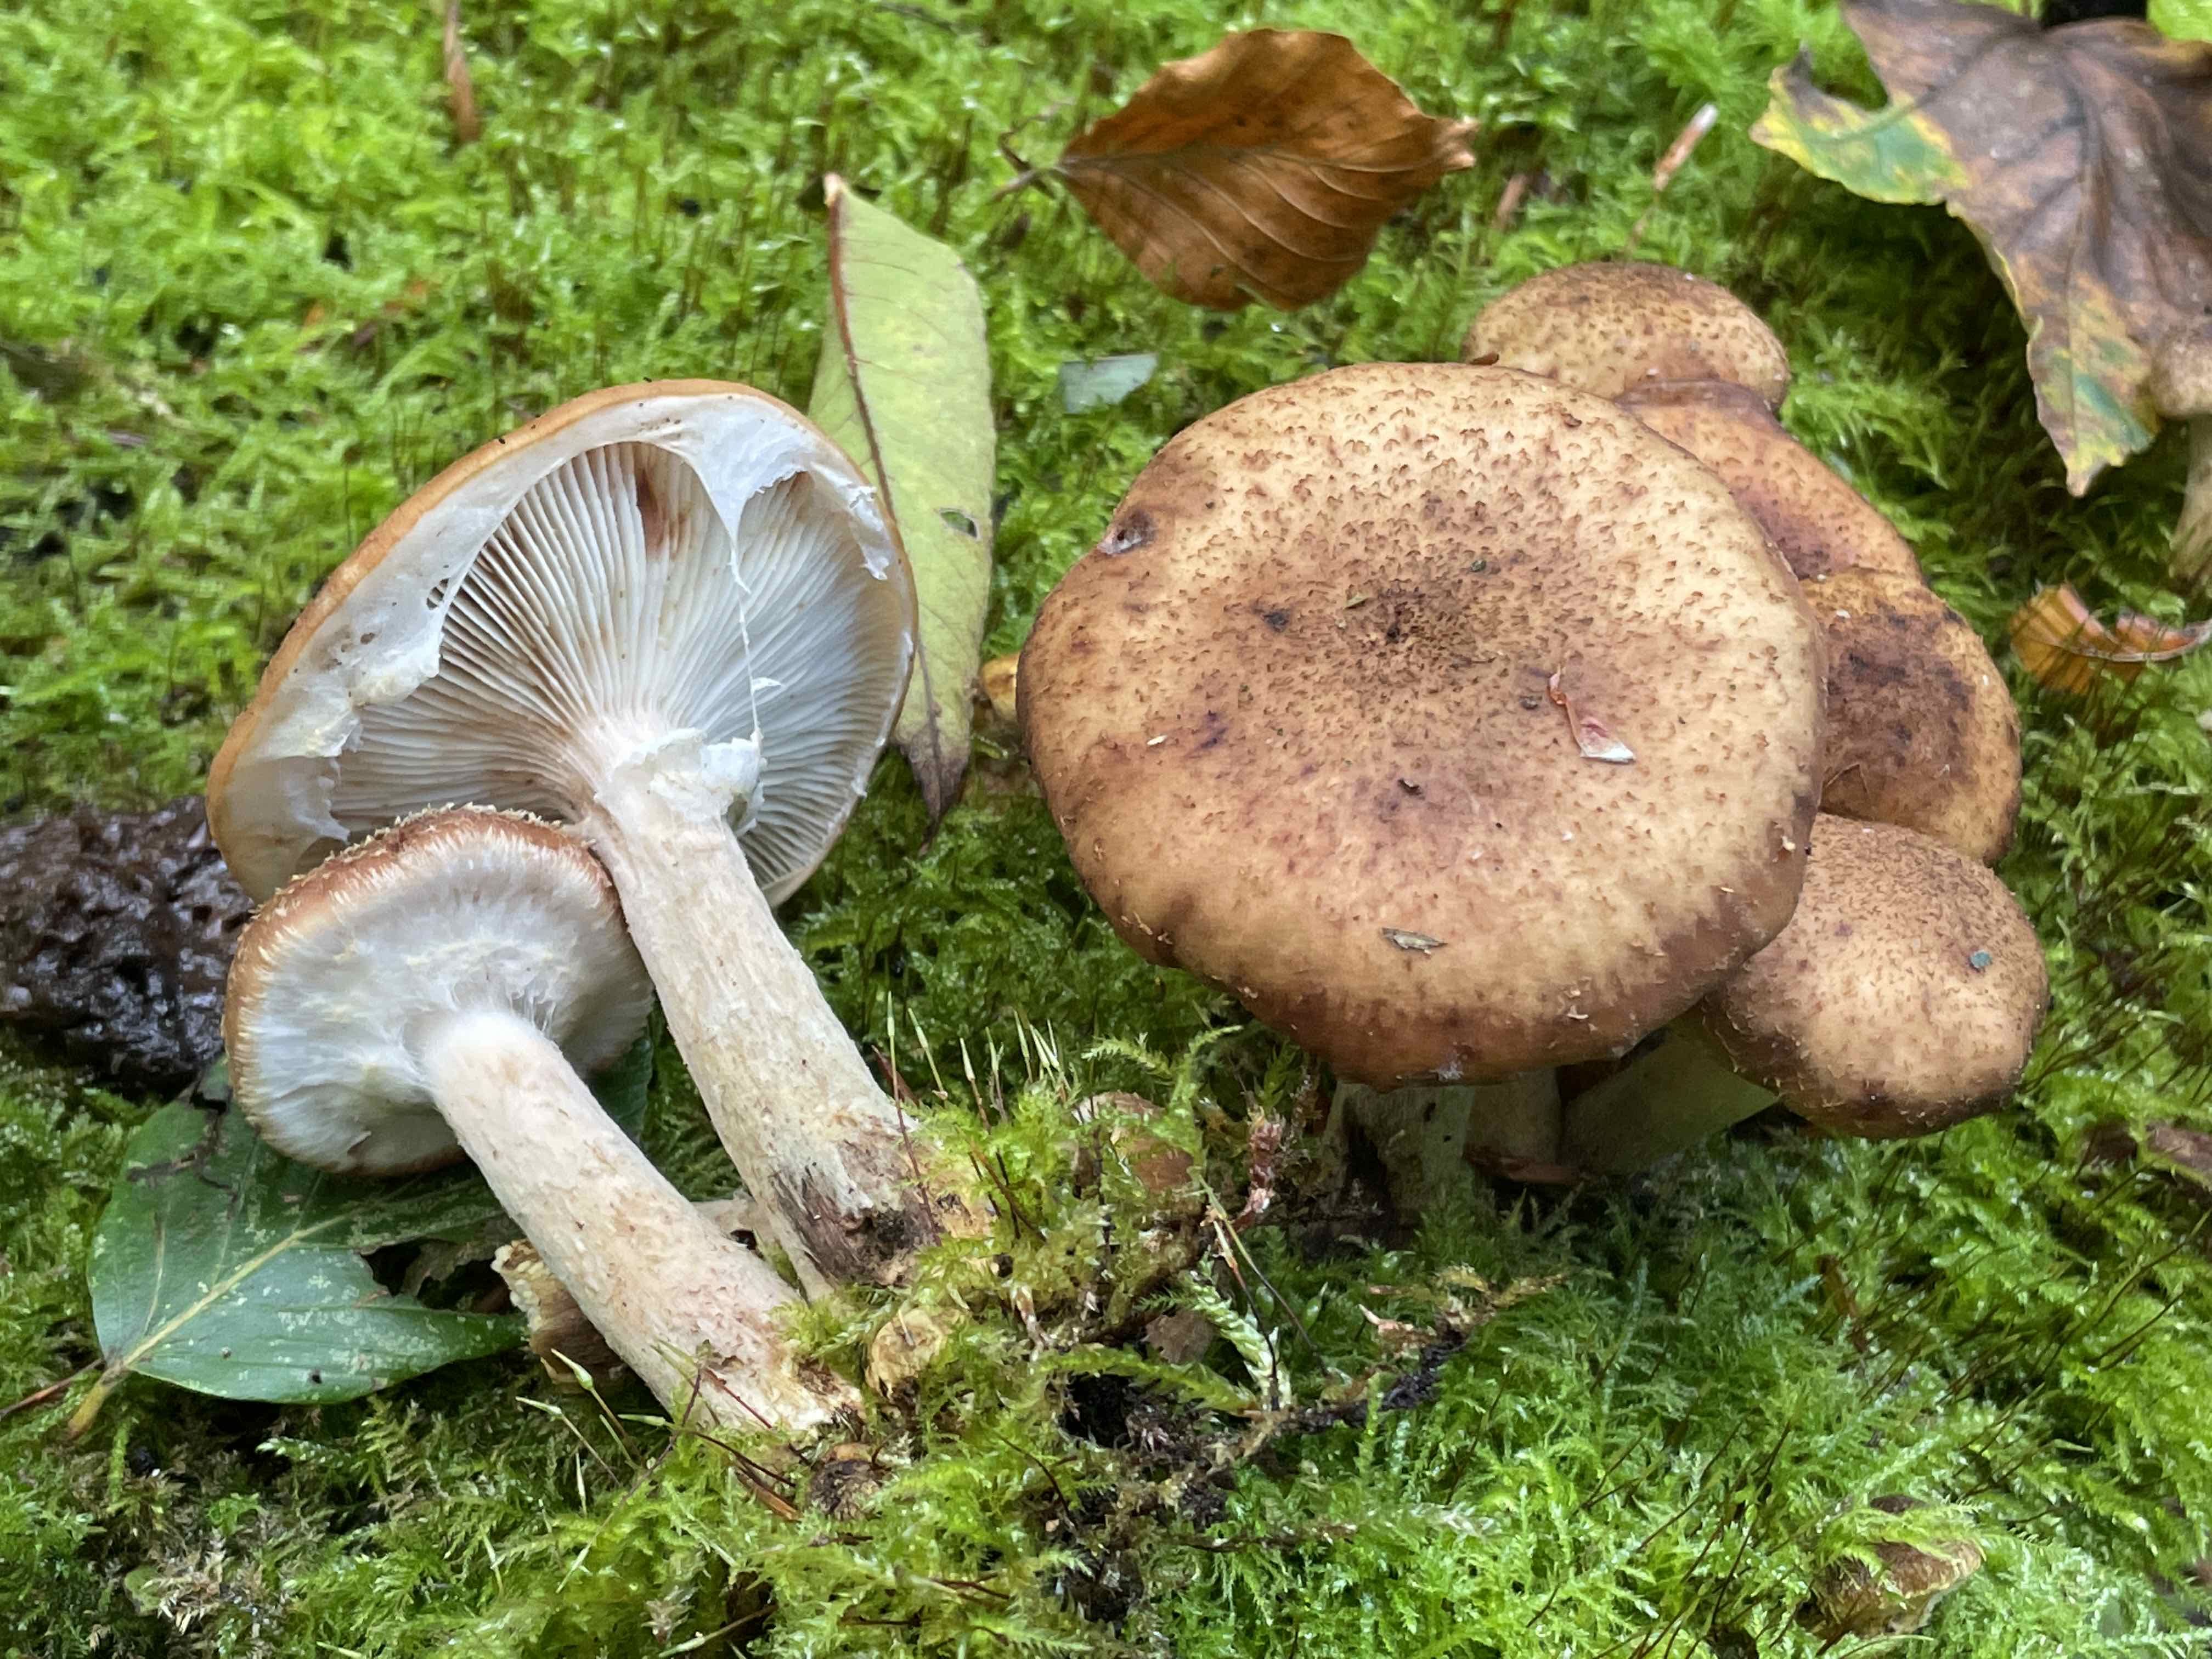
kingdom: Fungi
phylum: Basidiomycota
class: Agaricomycetes
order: Agaricales
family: Physalacriaceae
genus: Armillaria
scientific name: Armillaria lutea
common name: køllestokket honningsvamp
